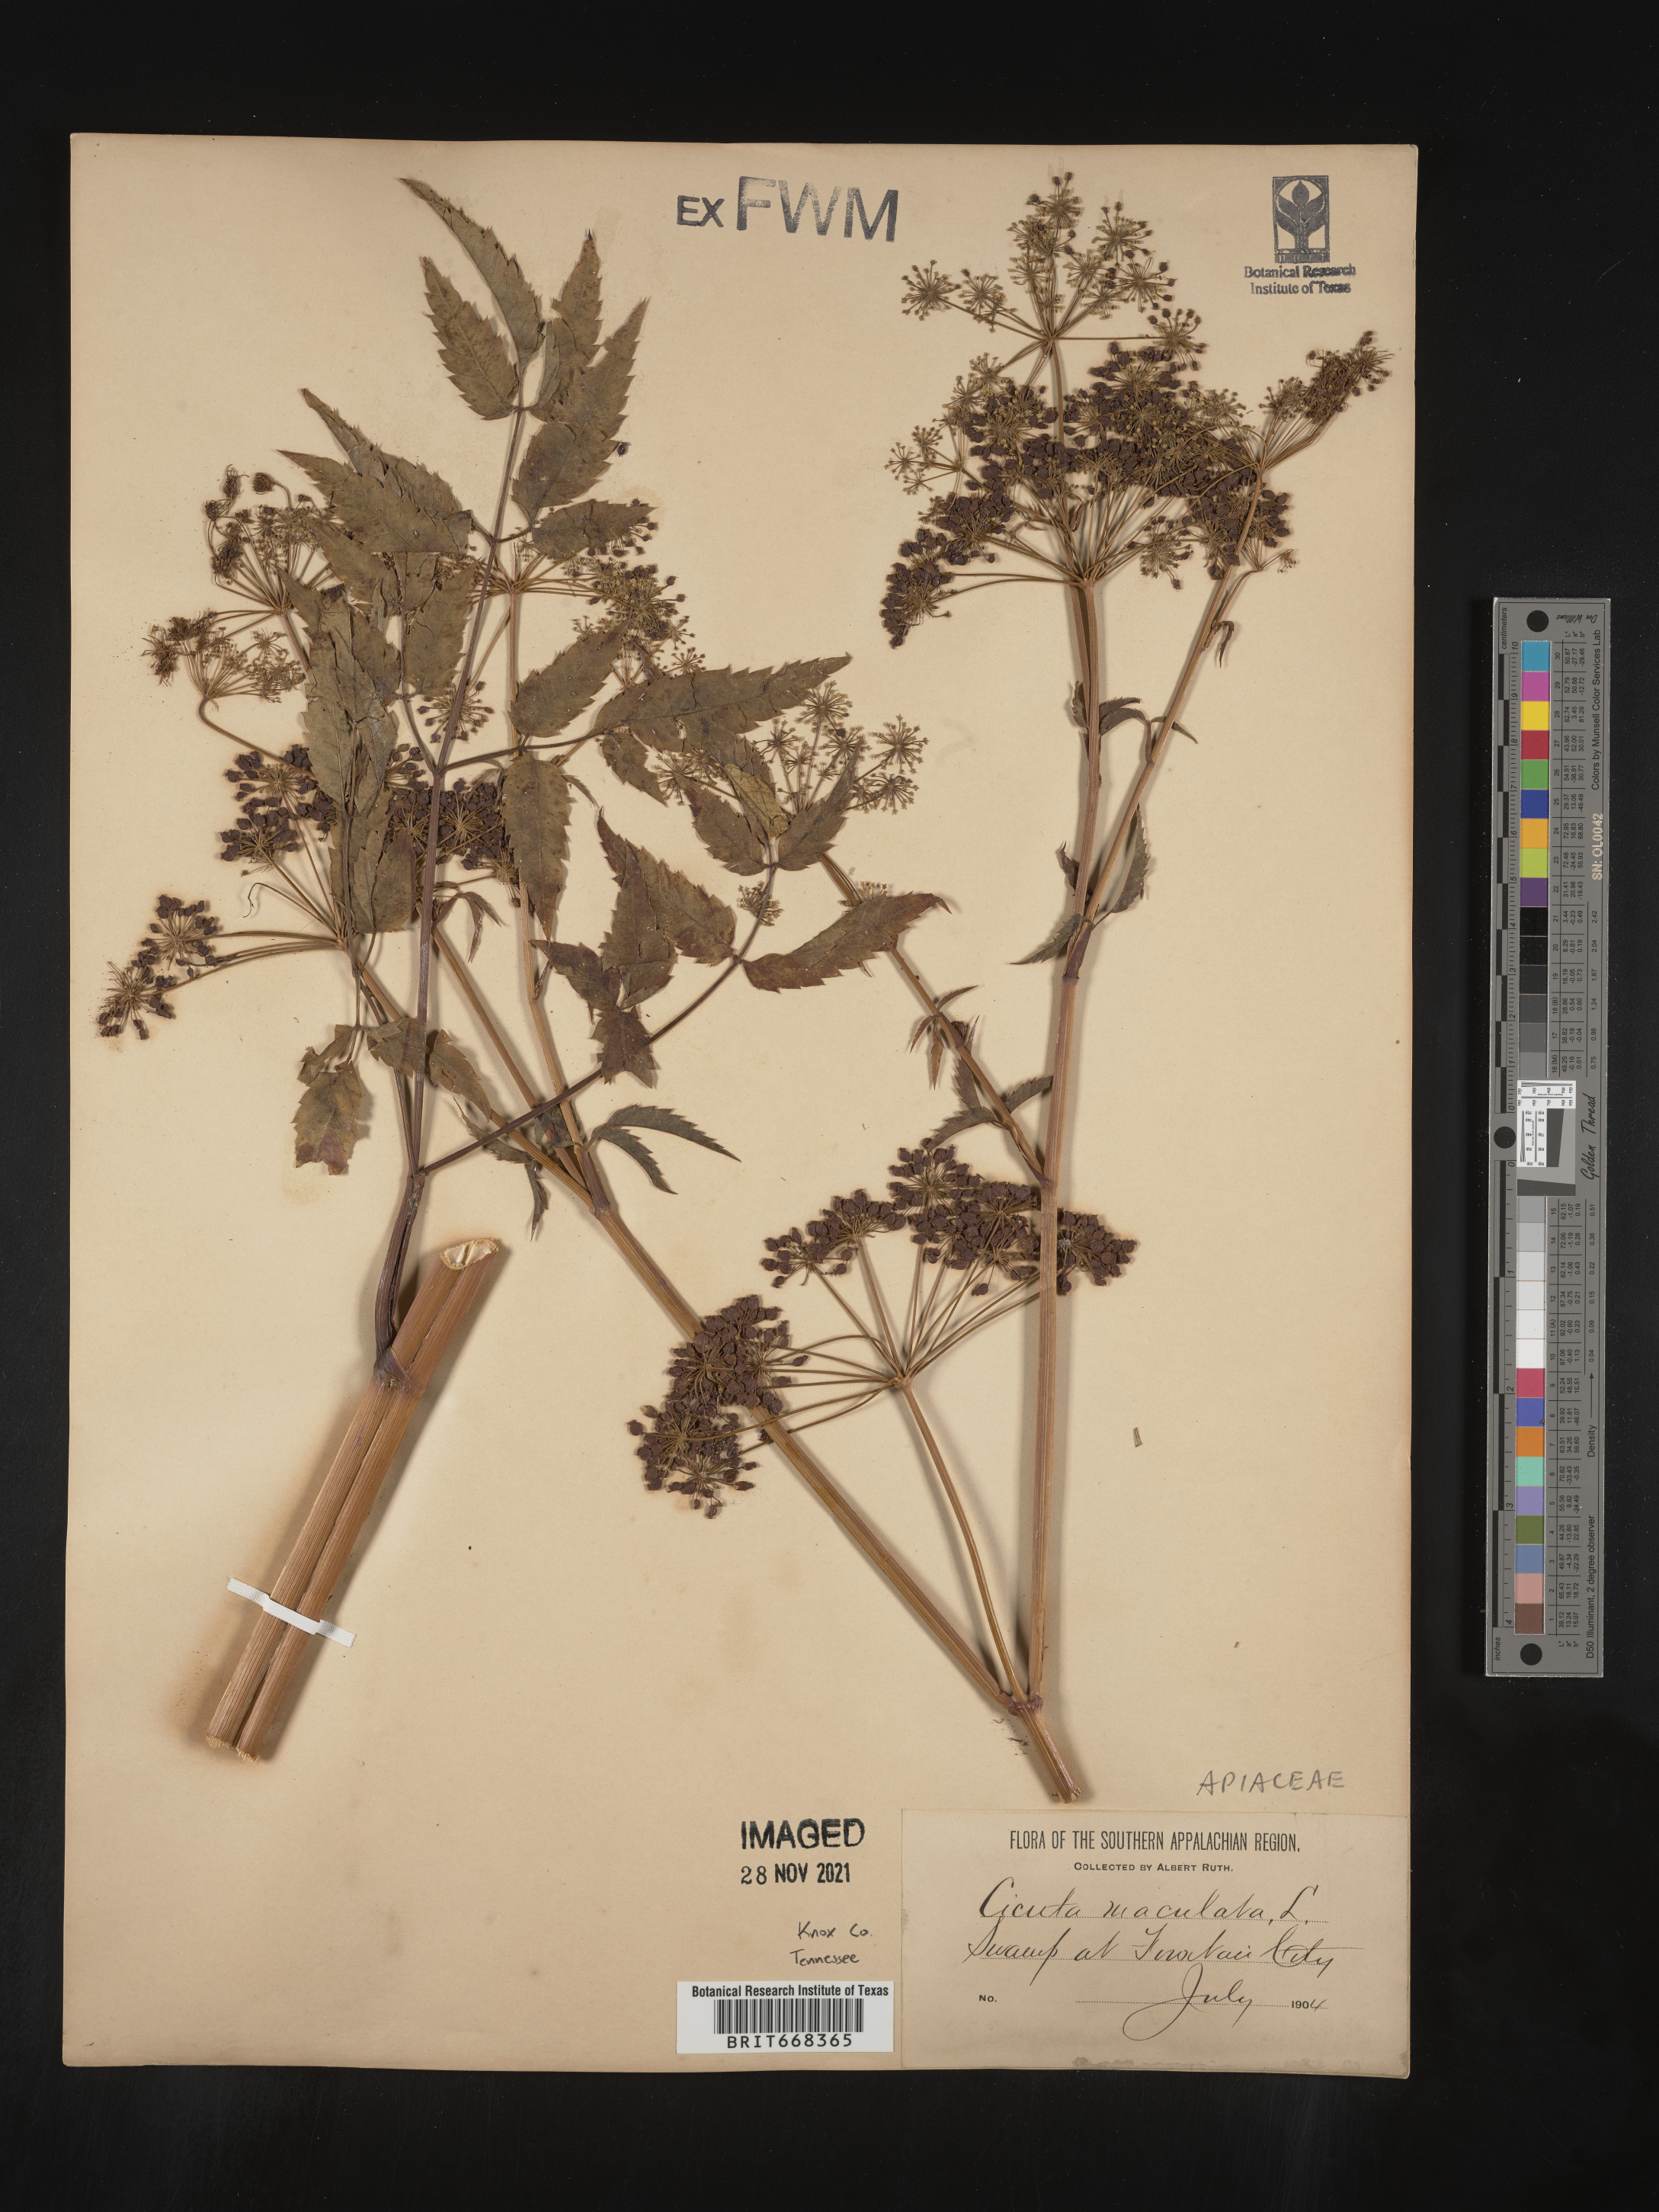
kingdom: Plantae
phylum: Tracheophyta
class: Magnoliopsida
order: Apiales
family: Apiaceae
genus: Cicuta
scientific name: Cicuta maculata
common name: Spotted cowbane
